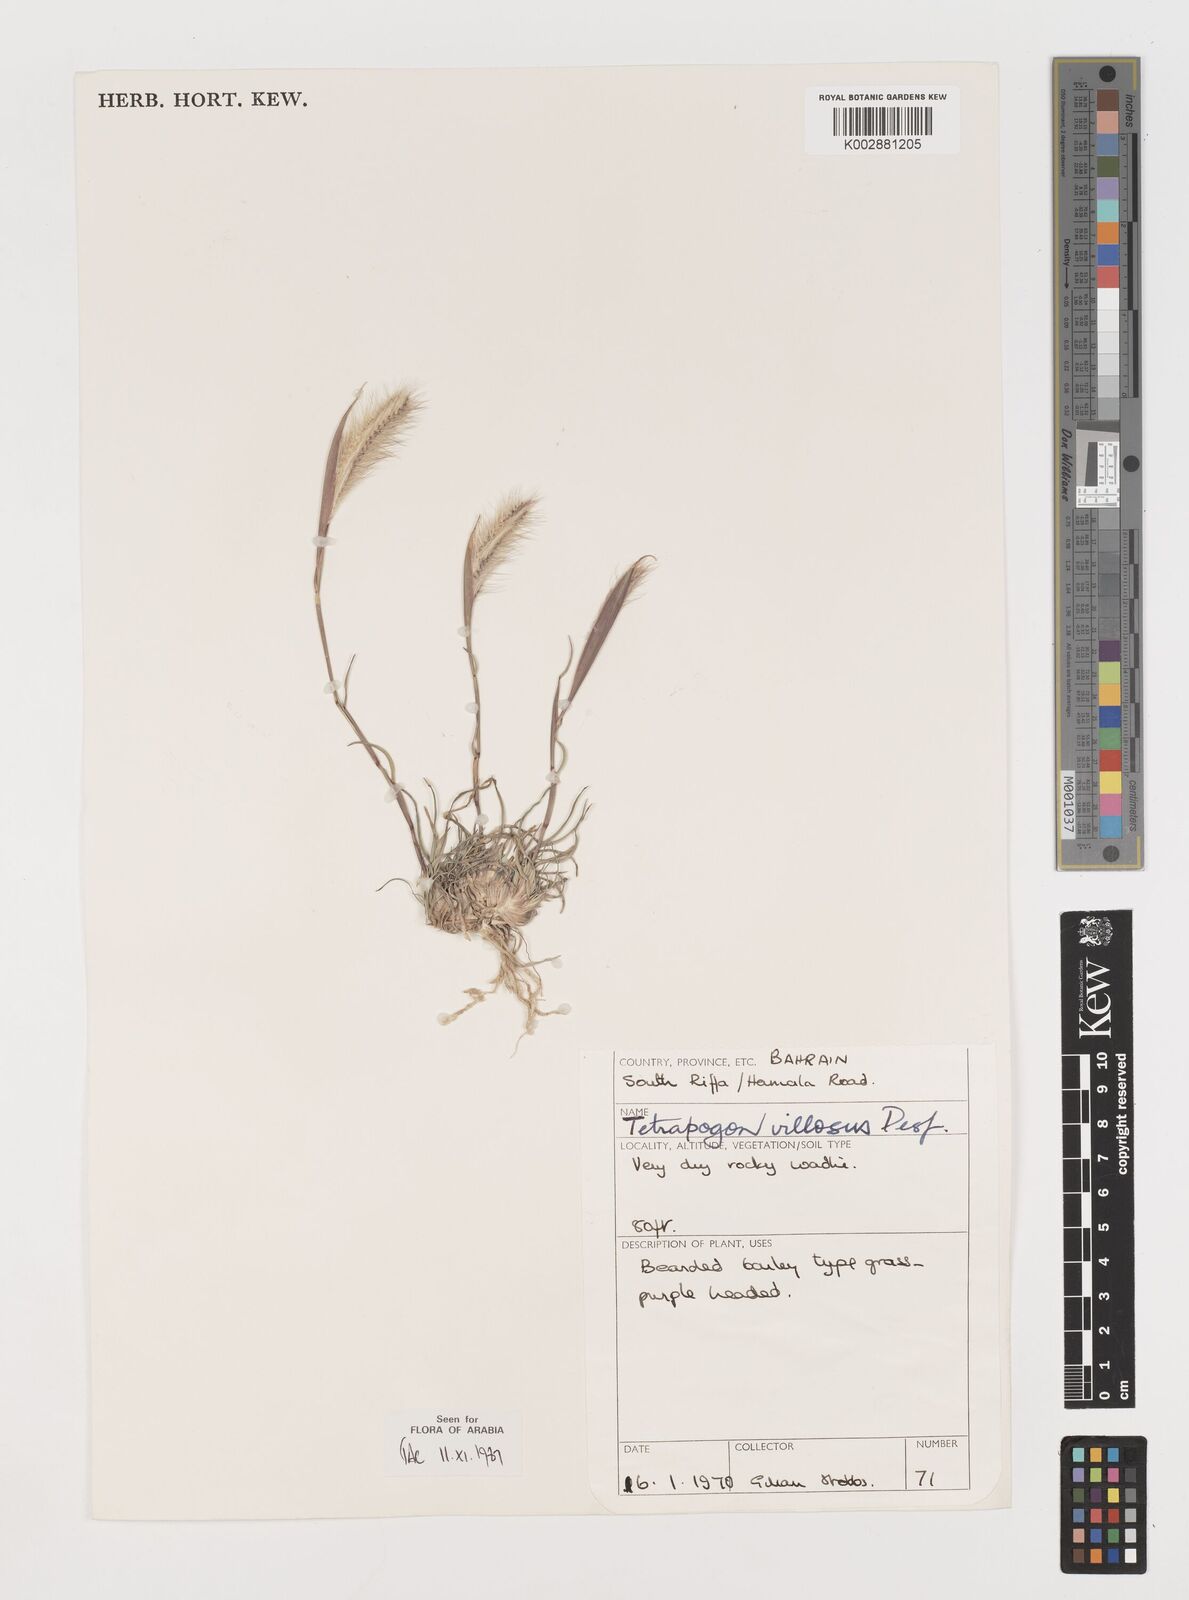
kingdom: Plantae
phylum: Tracheophyta
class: Liliopsida
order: Poales
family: Poaceae
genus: Tetrapogon
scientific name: Tetrapogon villosus
